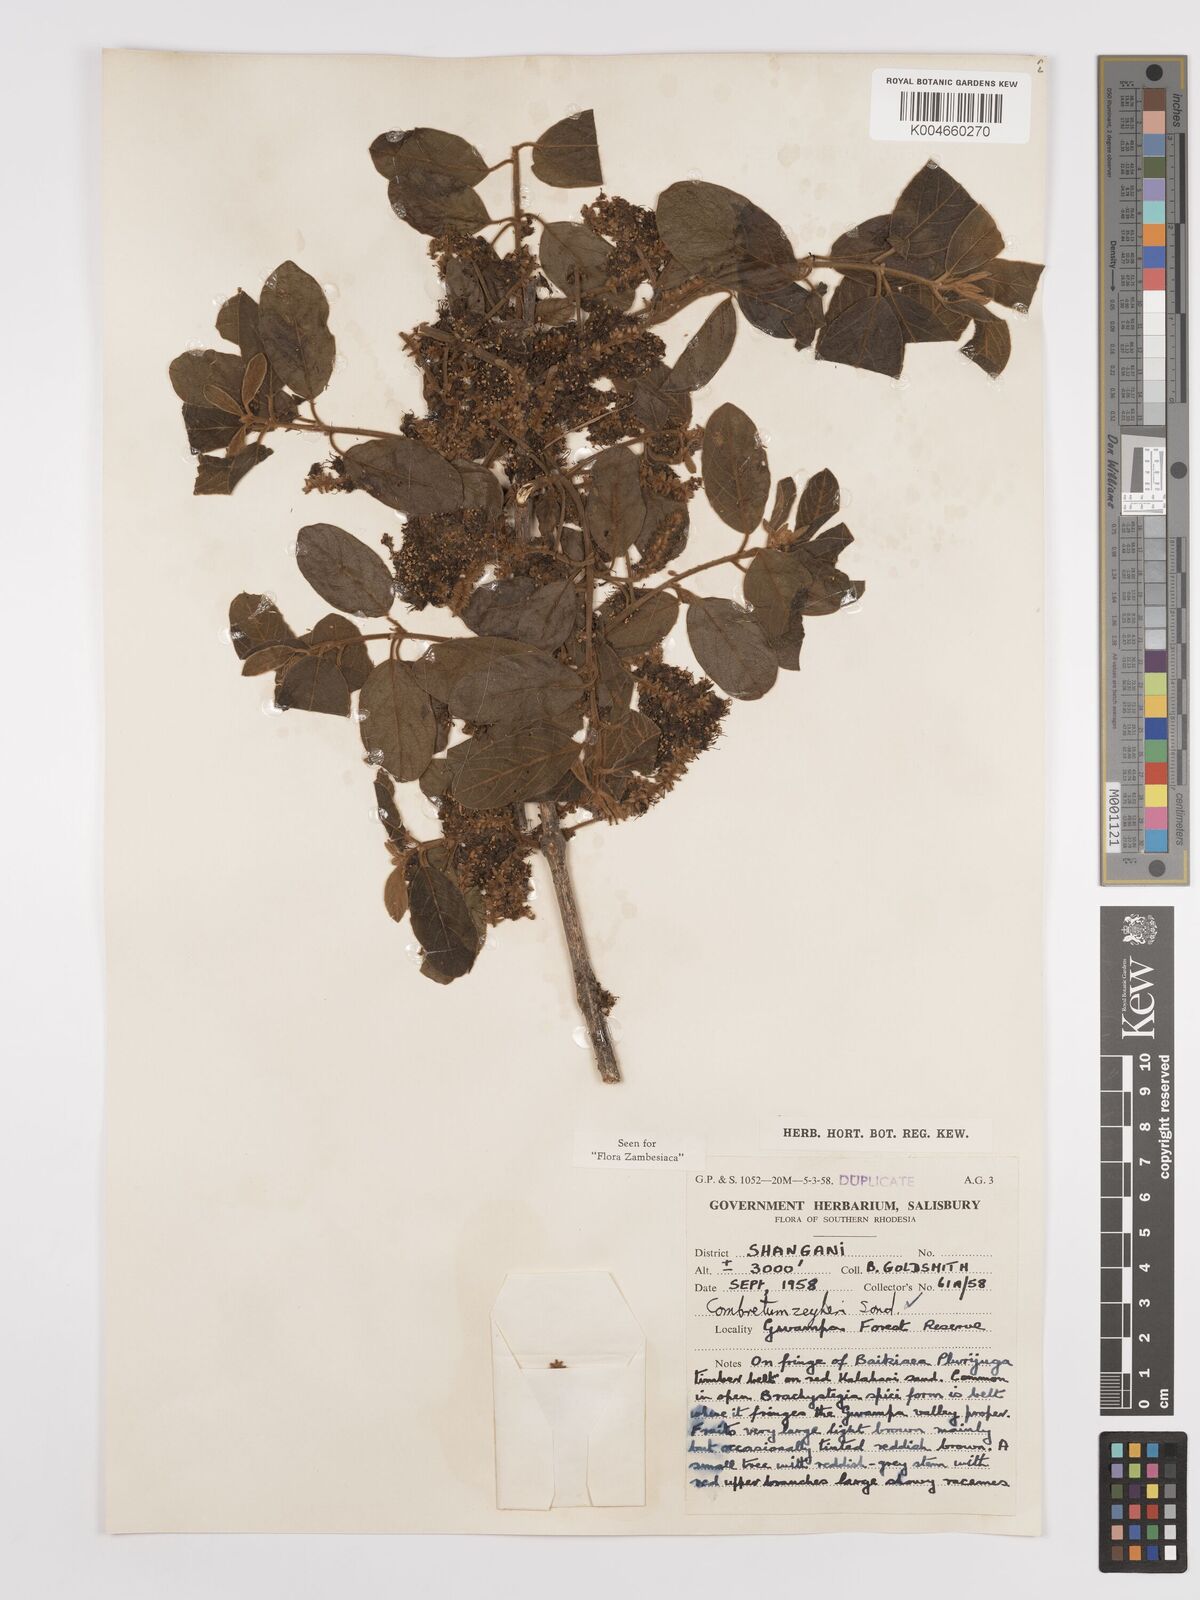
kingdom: Plantae
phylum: Tracheophyta
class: Magnoliopsida
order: Myrtales
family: Combretaceae
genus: Combretum
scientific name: Combretum zeyheri
